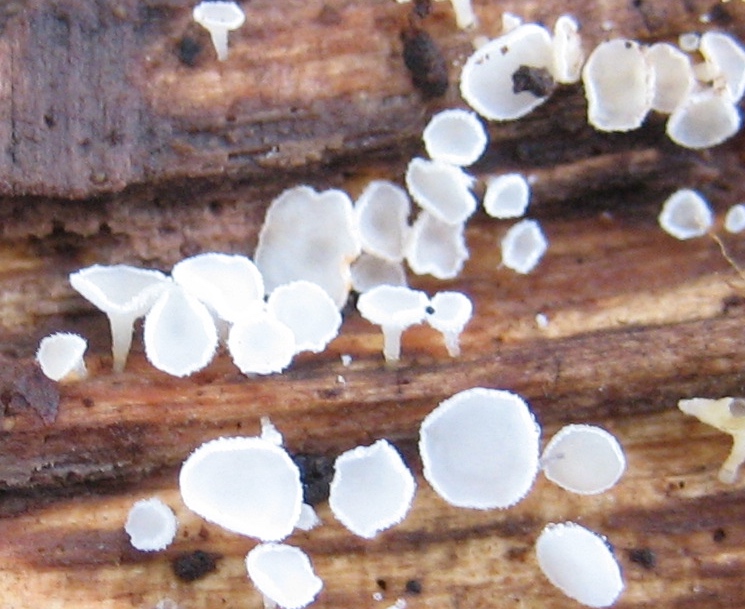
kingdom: Fungi
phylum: Ascomycota
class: Leotiomycetes
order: Helotiales
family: Lachnaceae
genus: Lachnum
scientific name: Lachnum
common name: frynseskive
